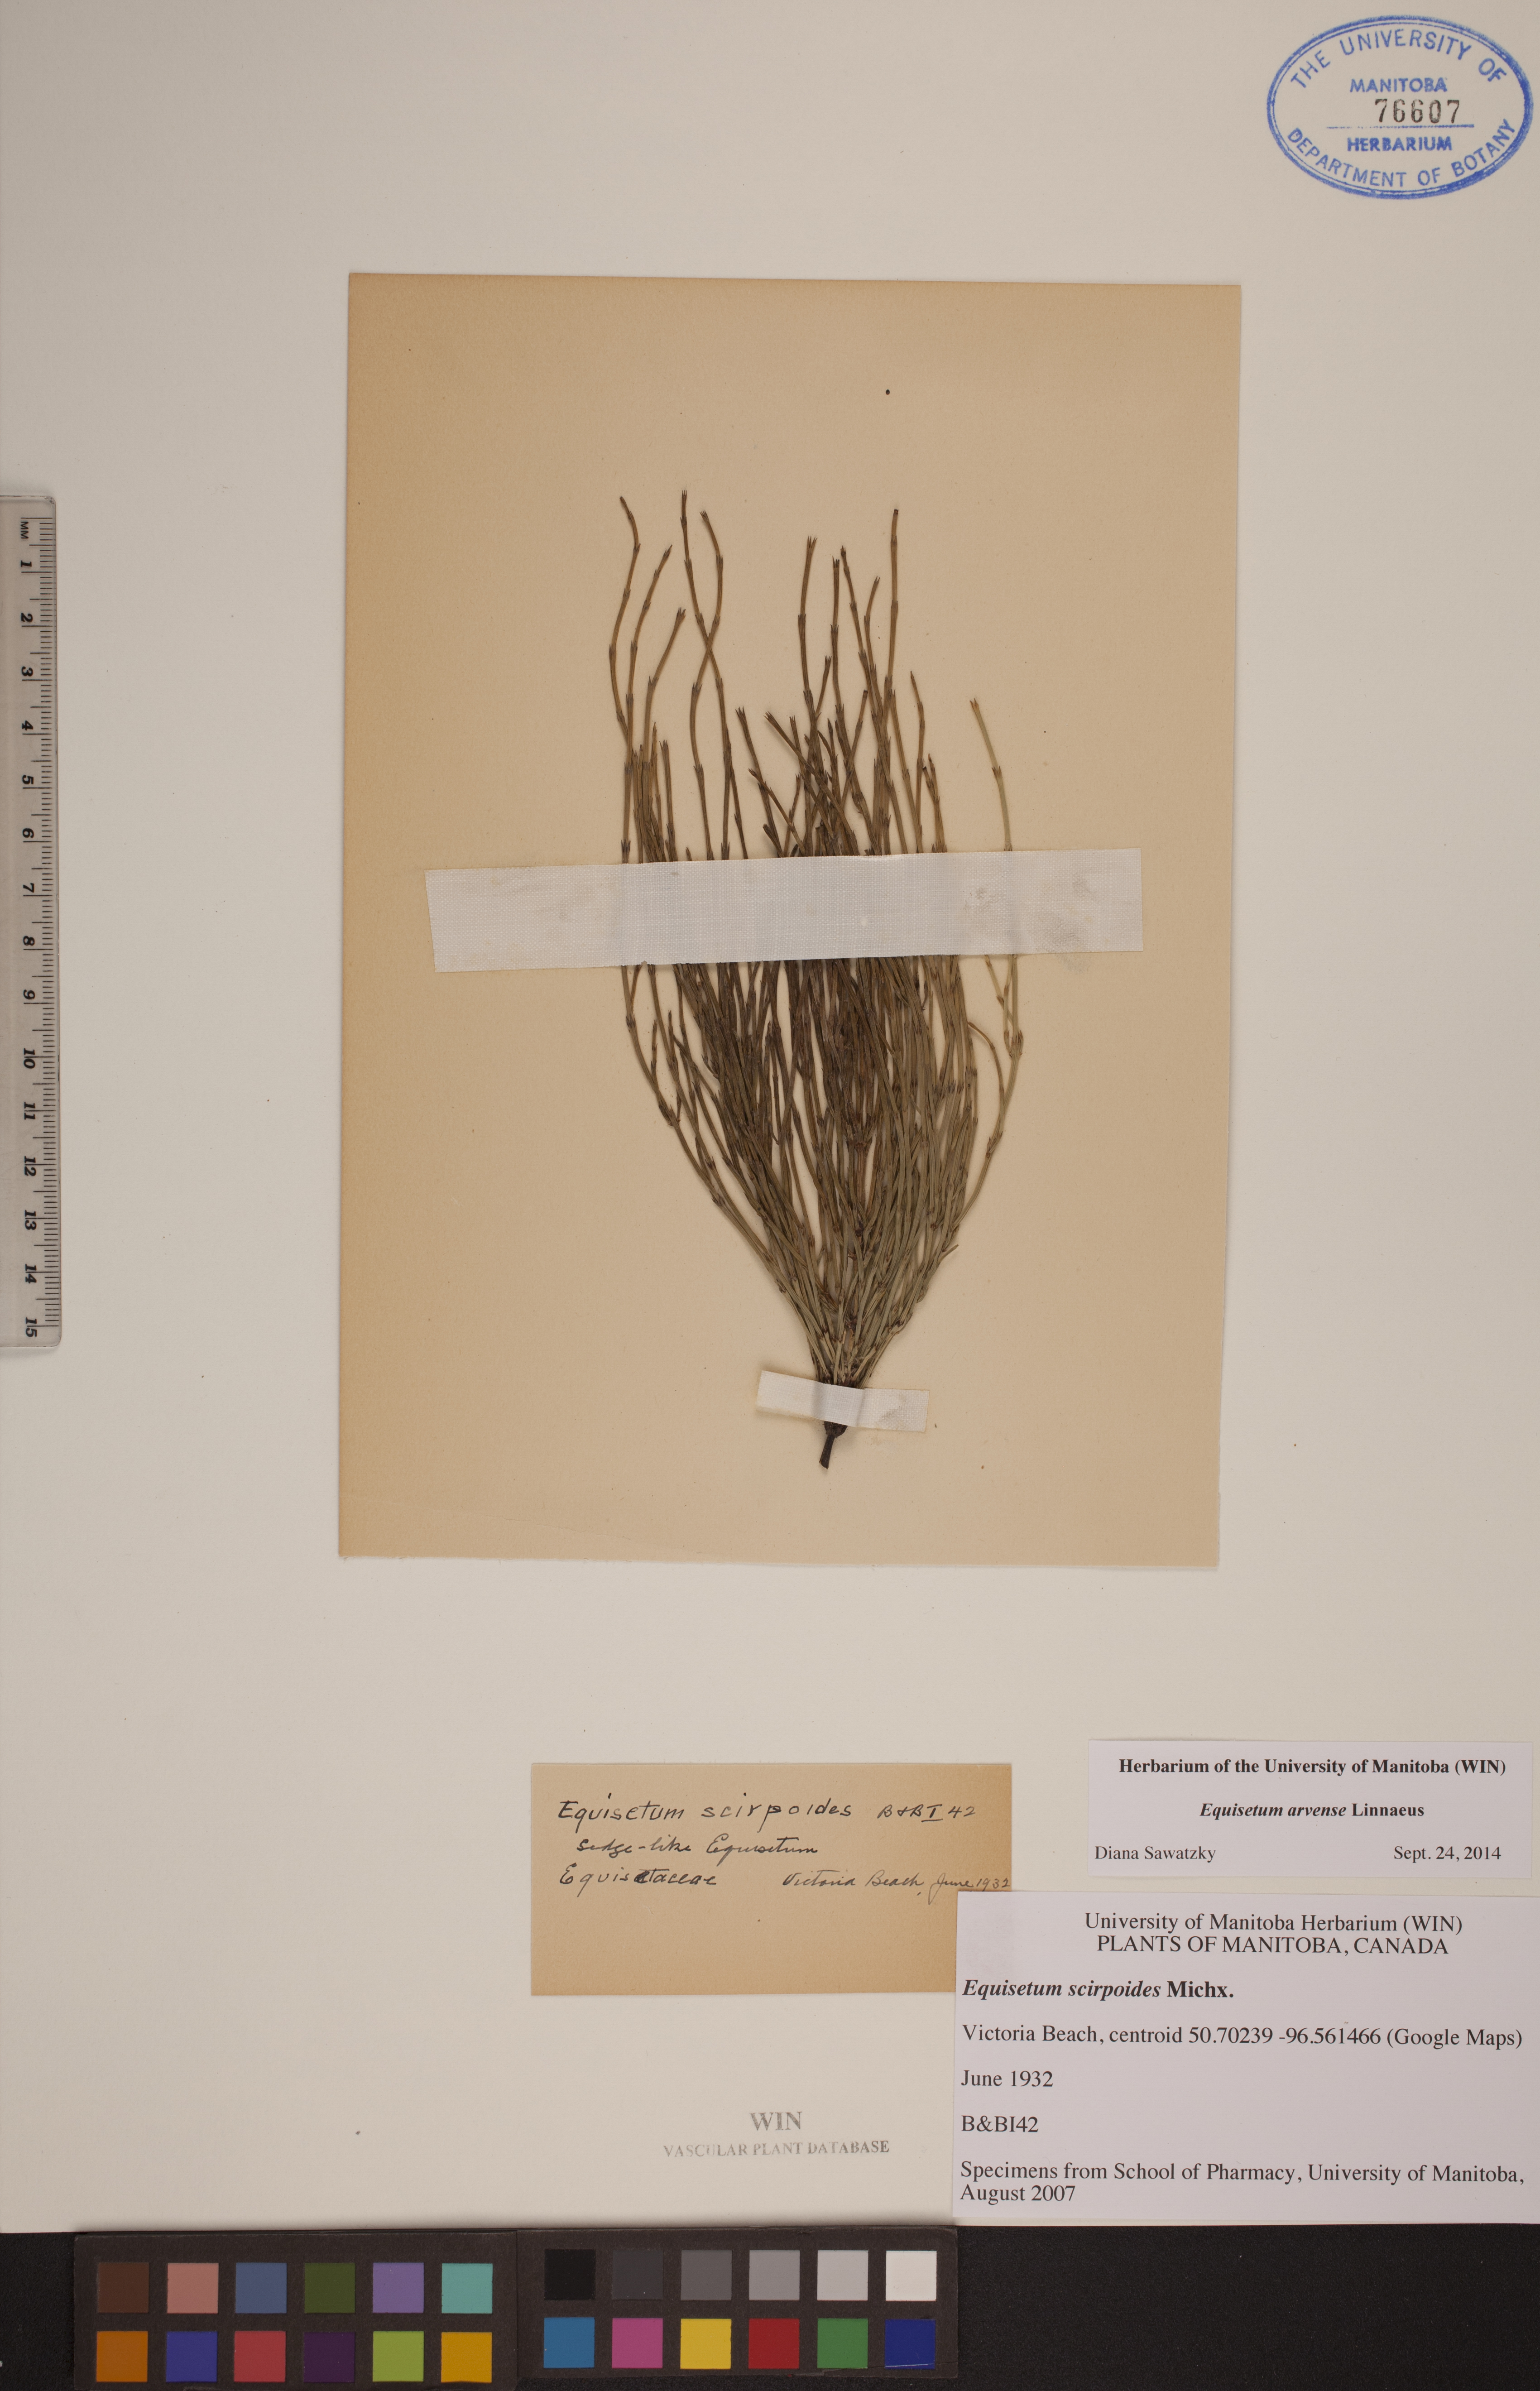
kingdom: Plantae
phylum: Tracheophyta
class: Polypodiopsida
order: Equisetales
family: Equisetaceae
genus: Equisetum
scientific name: Equisetum arvense
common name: Field horsetail
